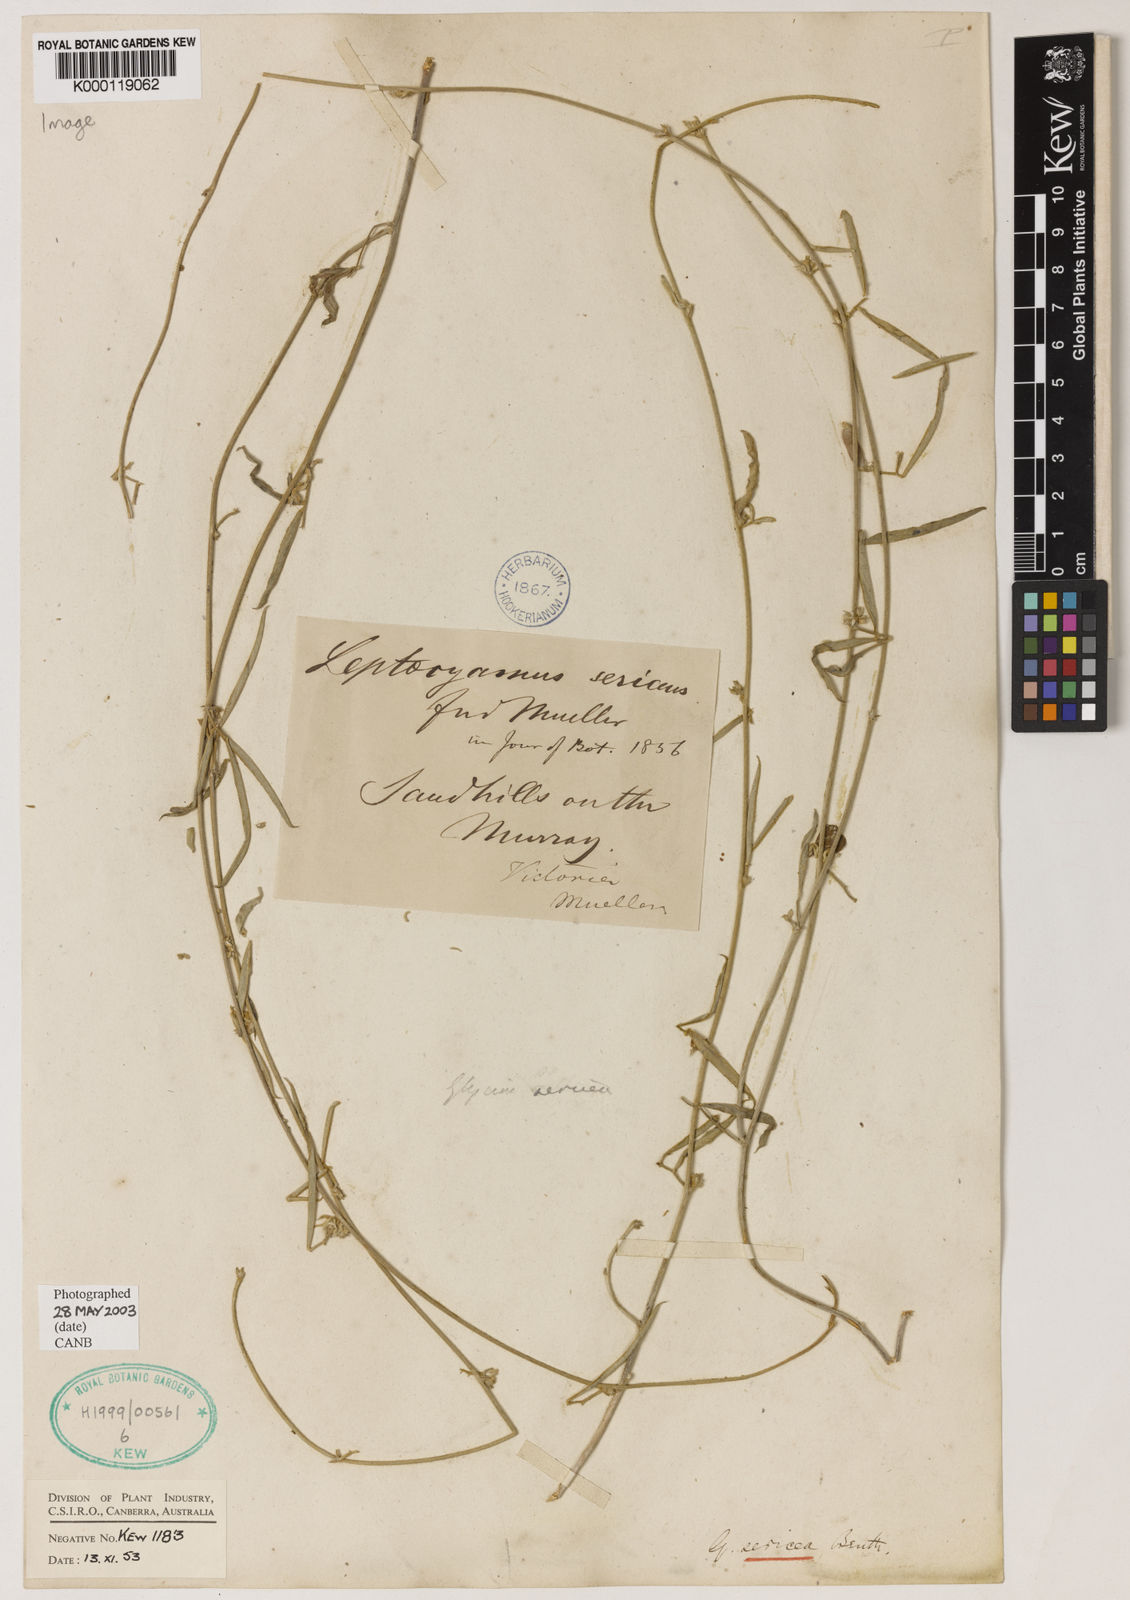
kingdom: Plantae
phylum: Tracheophyta
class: Magnoliopsida
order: Fabales
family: Fabaceae
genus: Glycine
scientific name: Glycine canescens
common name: Silky glycine
